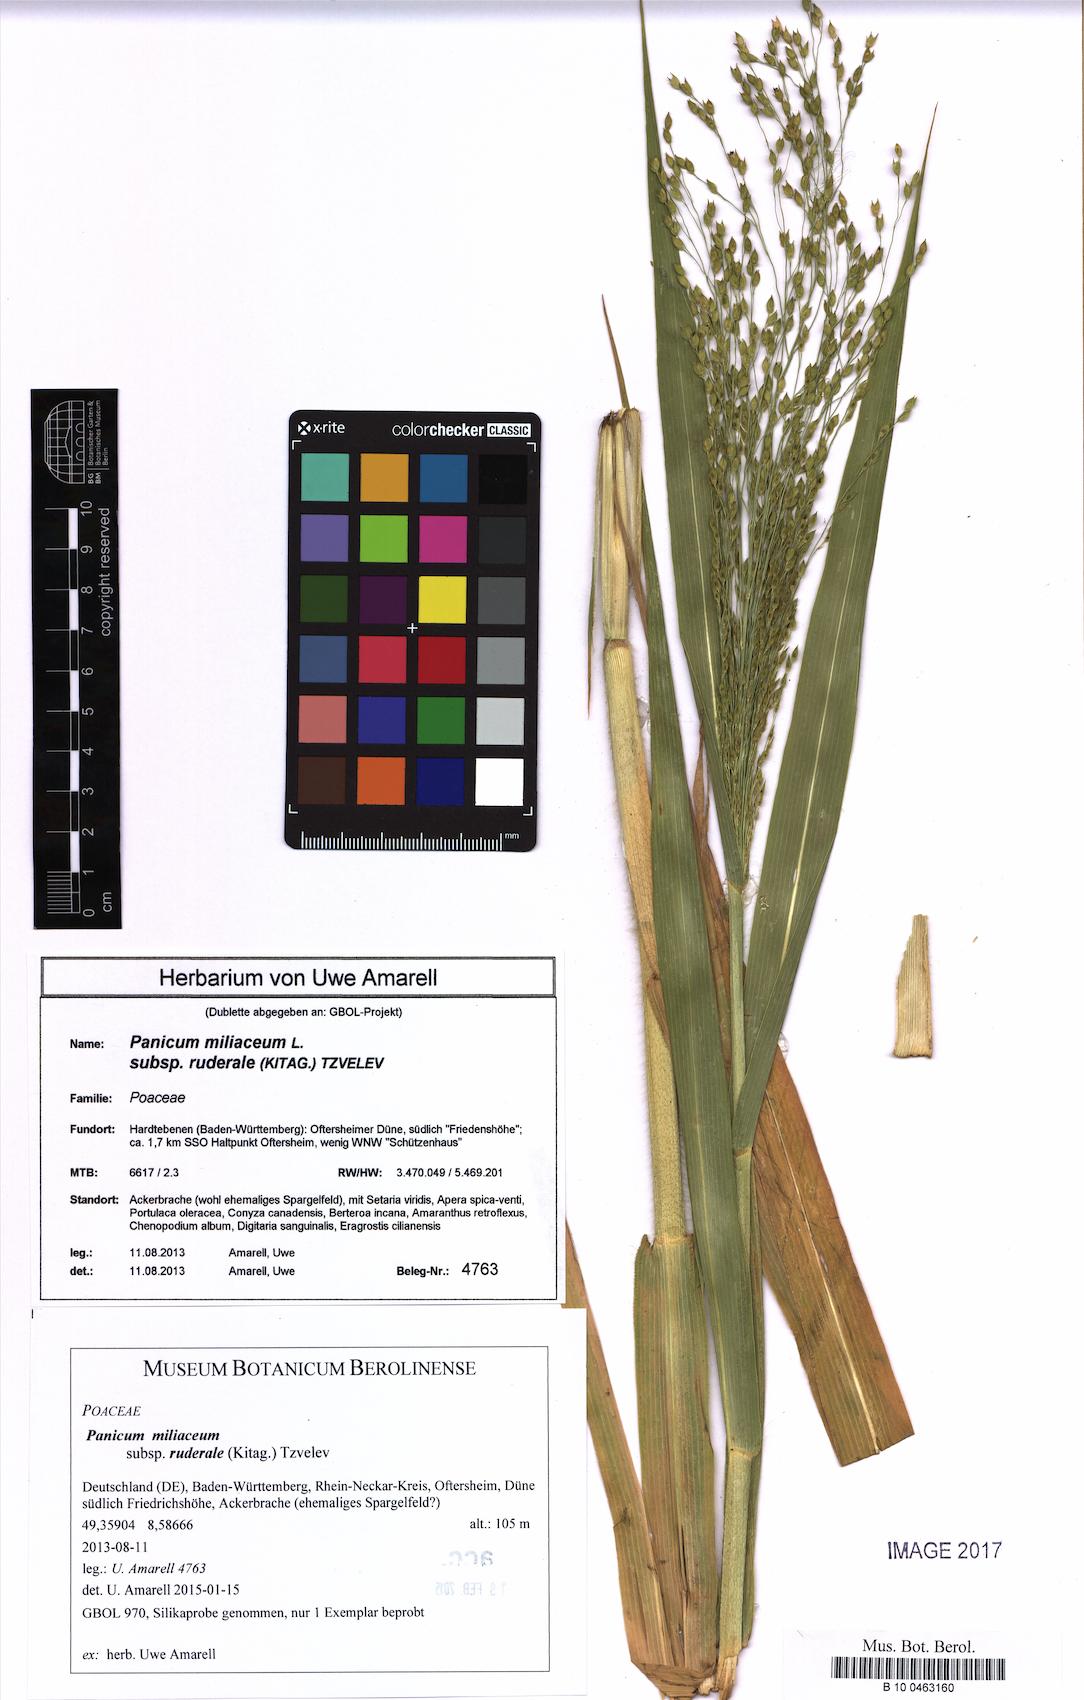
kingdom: Plantae
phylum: Tracheophyta
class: Liliopsida
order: Poales
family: Poaceae
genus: Panicum
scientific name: Panicum miliaceum
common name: Common millet
